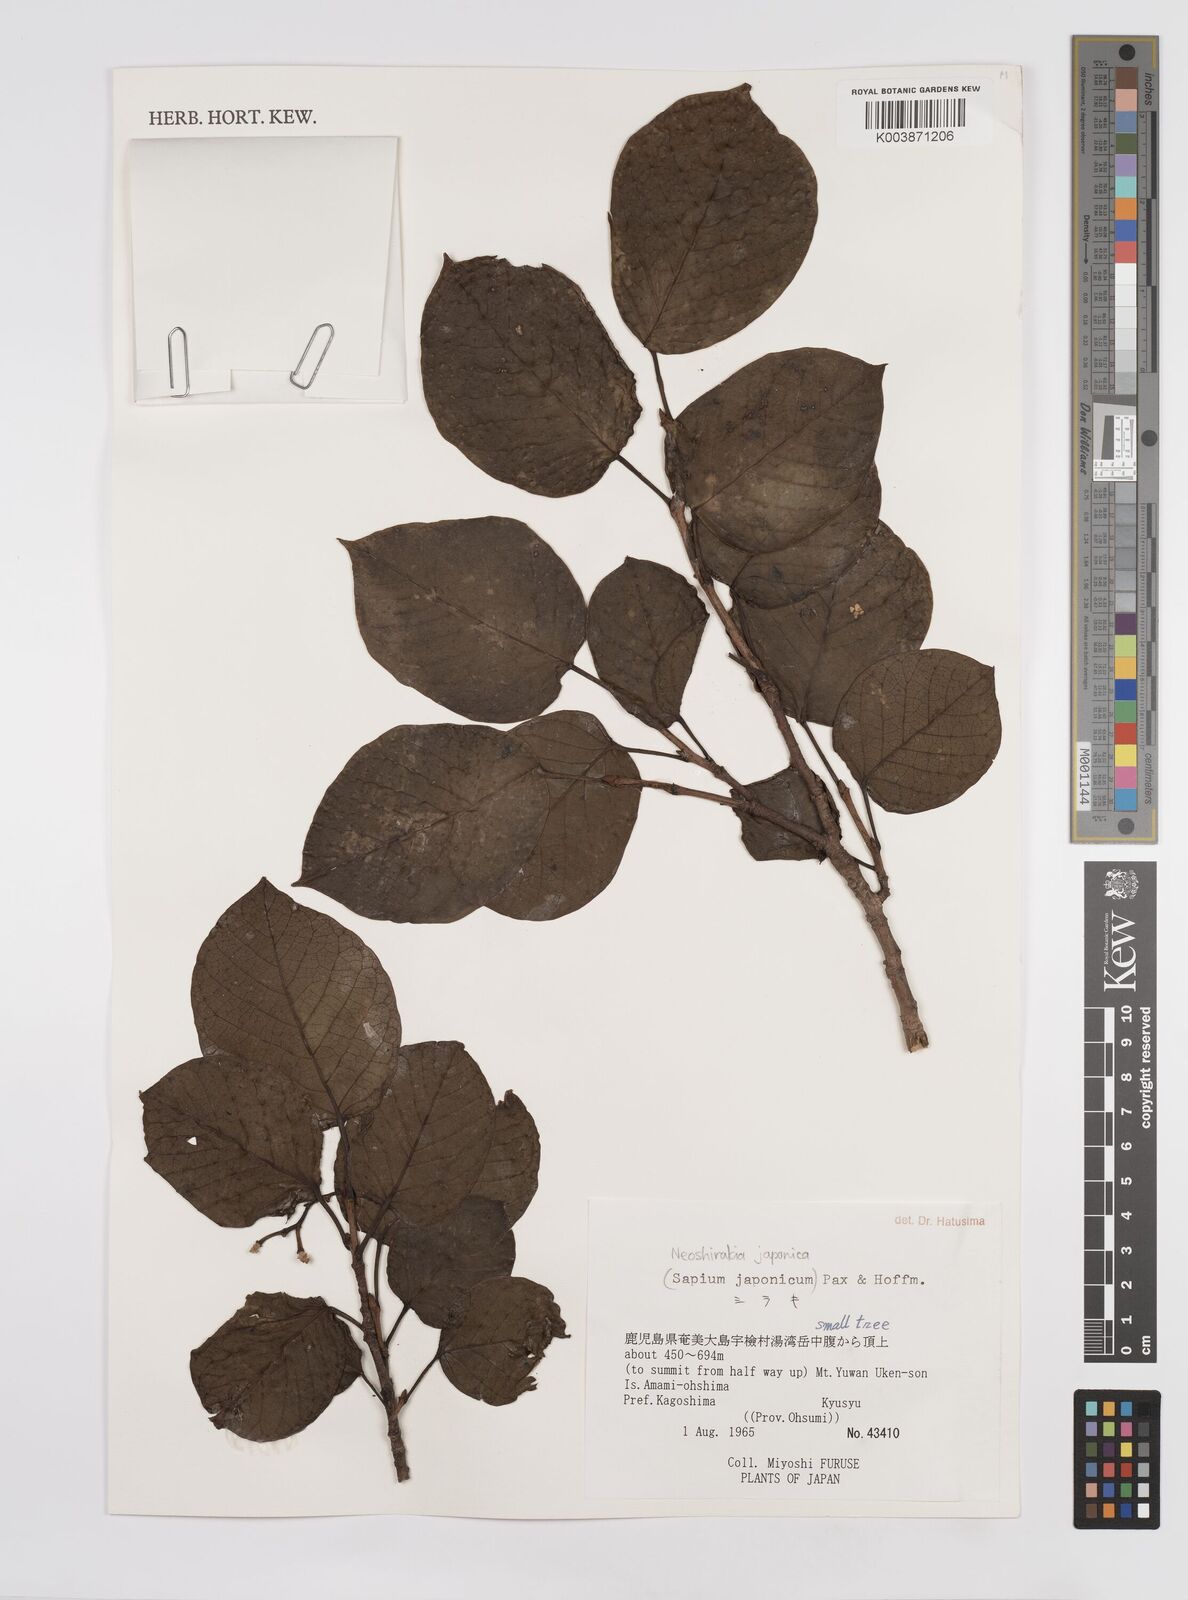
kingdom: Plantae
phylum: Tracheophyta
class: Magnoliopsida
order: Malpighiales
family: Euphorbiaceae
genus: Neoshirakia
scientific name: Neoshirakia japonica
